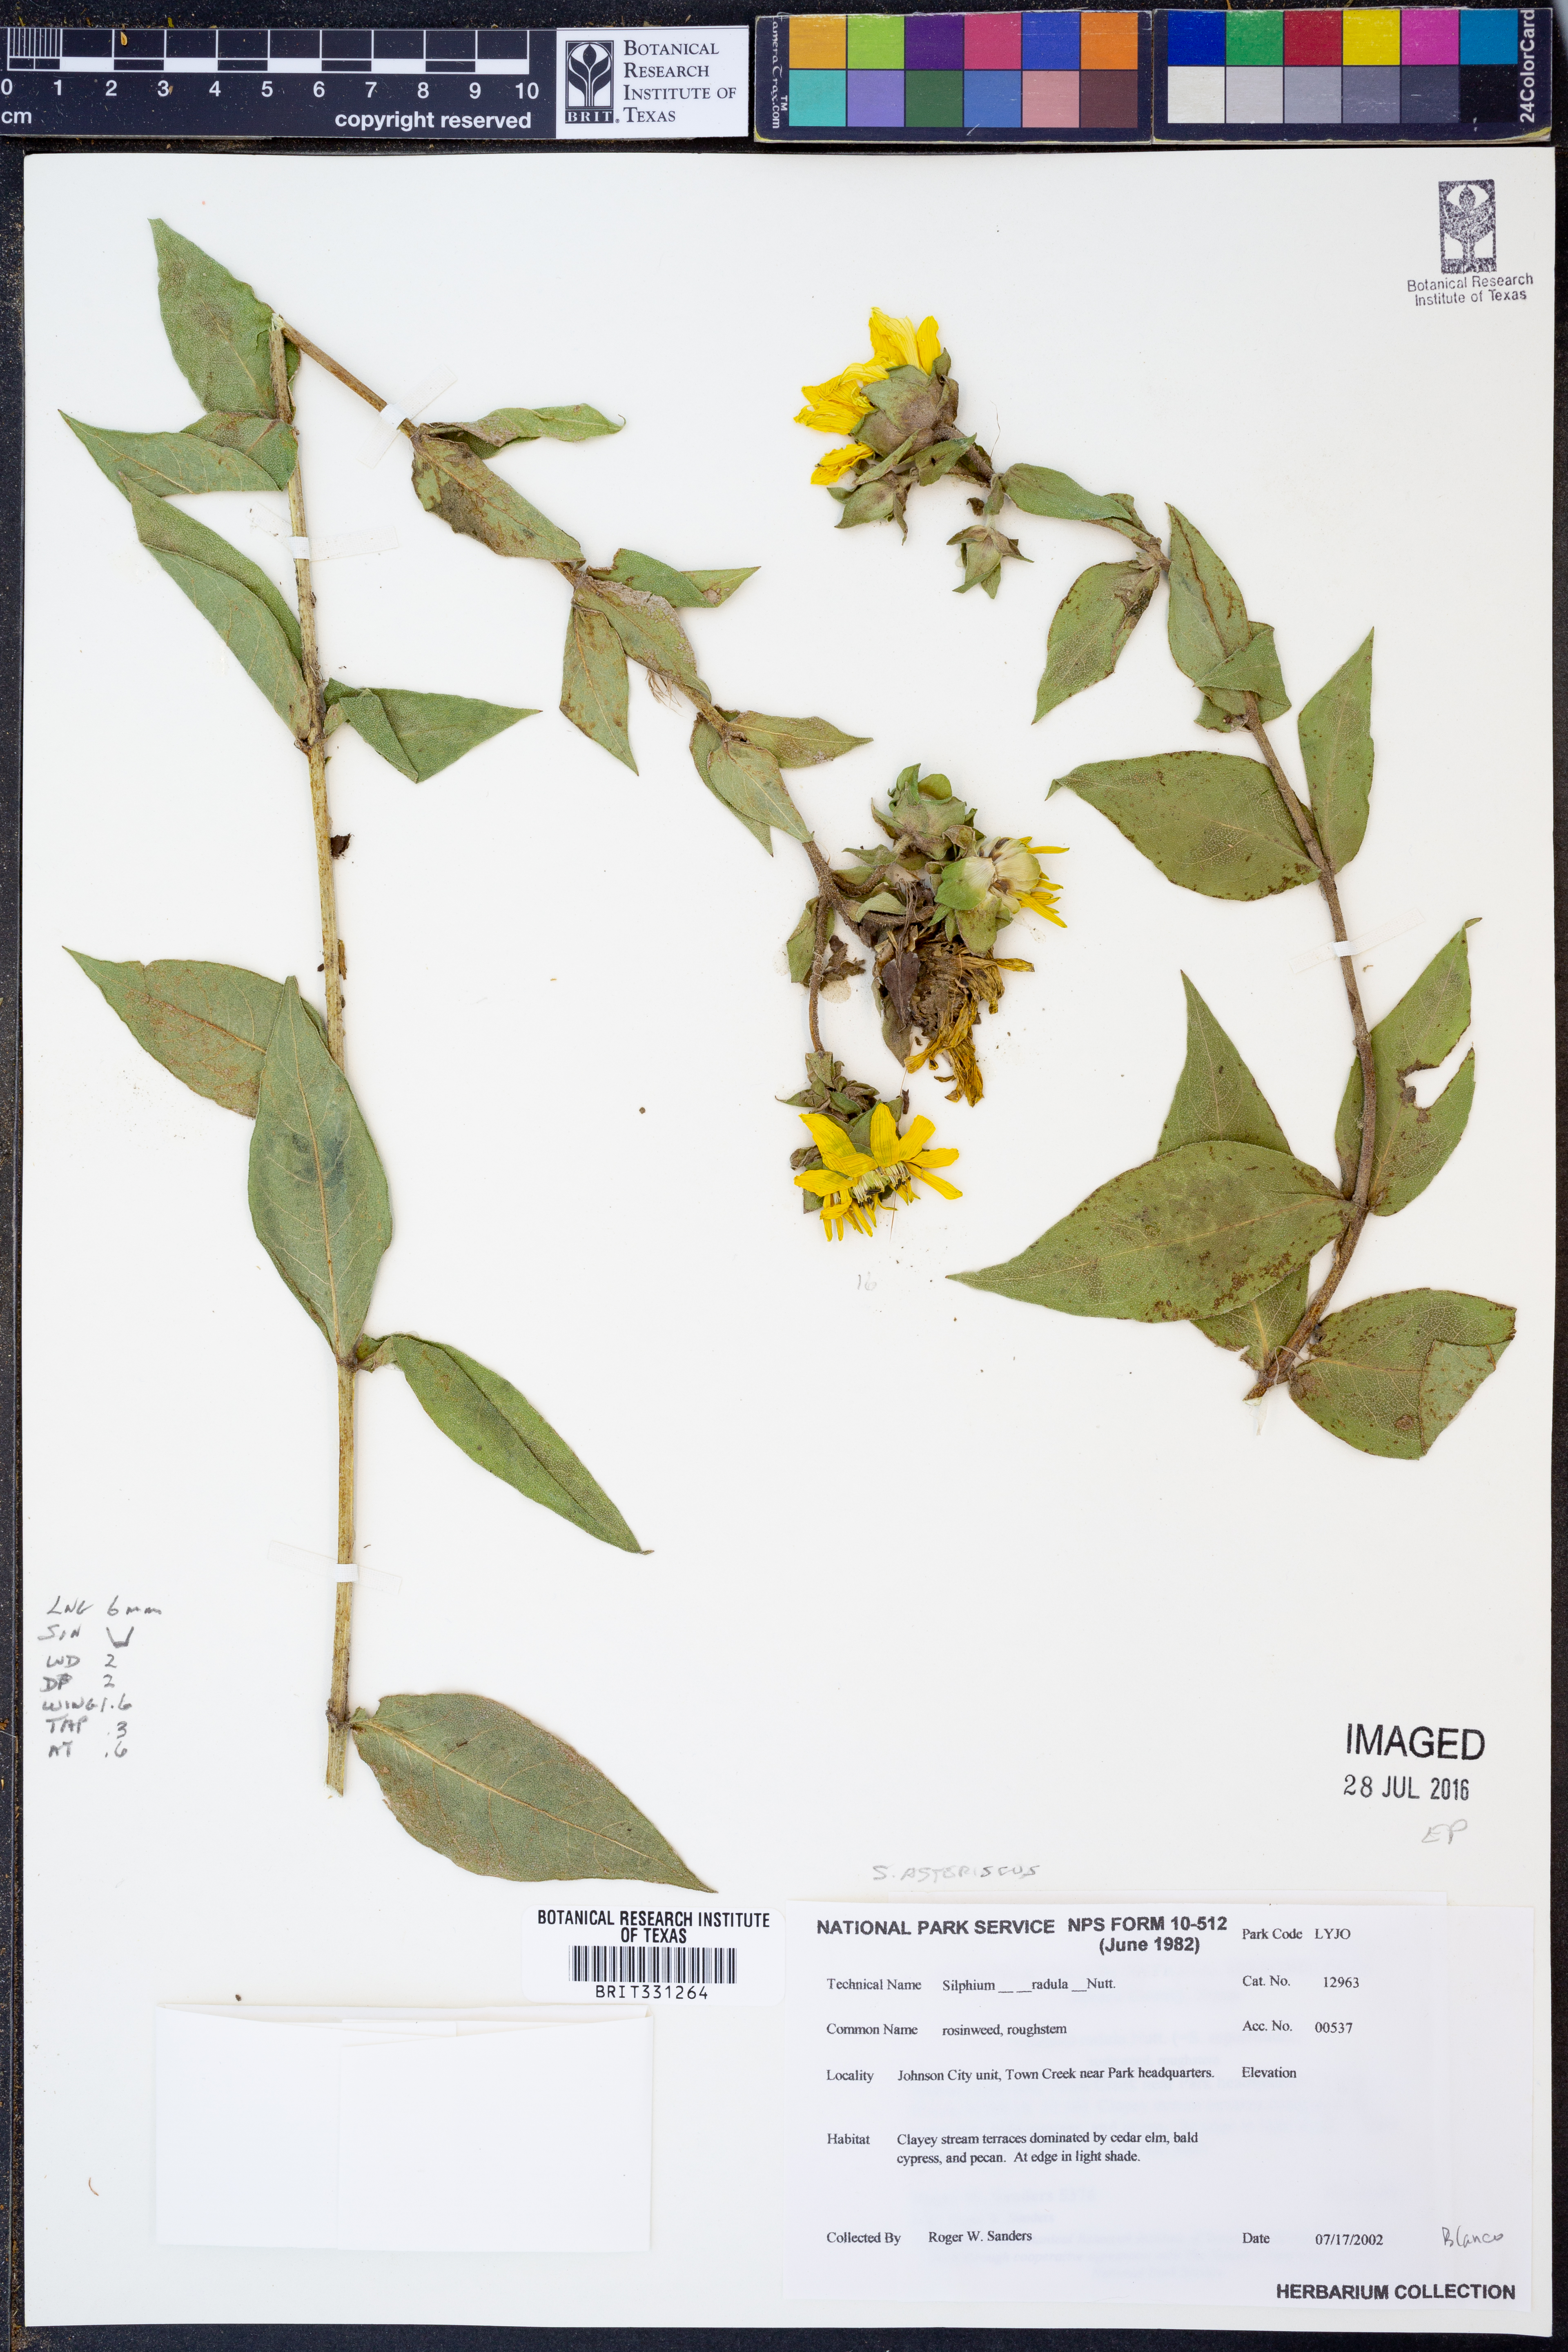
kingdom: Plantae
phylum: Tracheophyta
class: Magnoliopsida
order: Asterales
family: Asteraceae
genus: Silphium
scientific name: Silphium asteriscus
